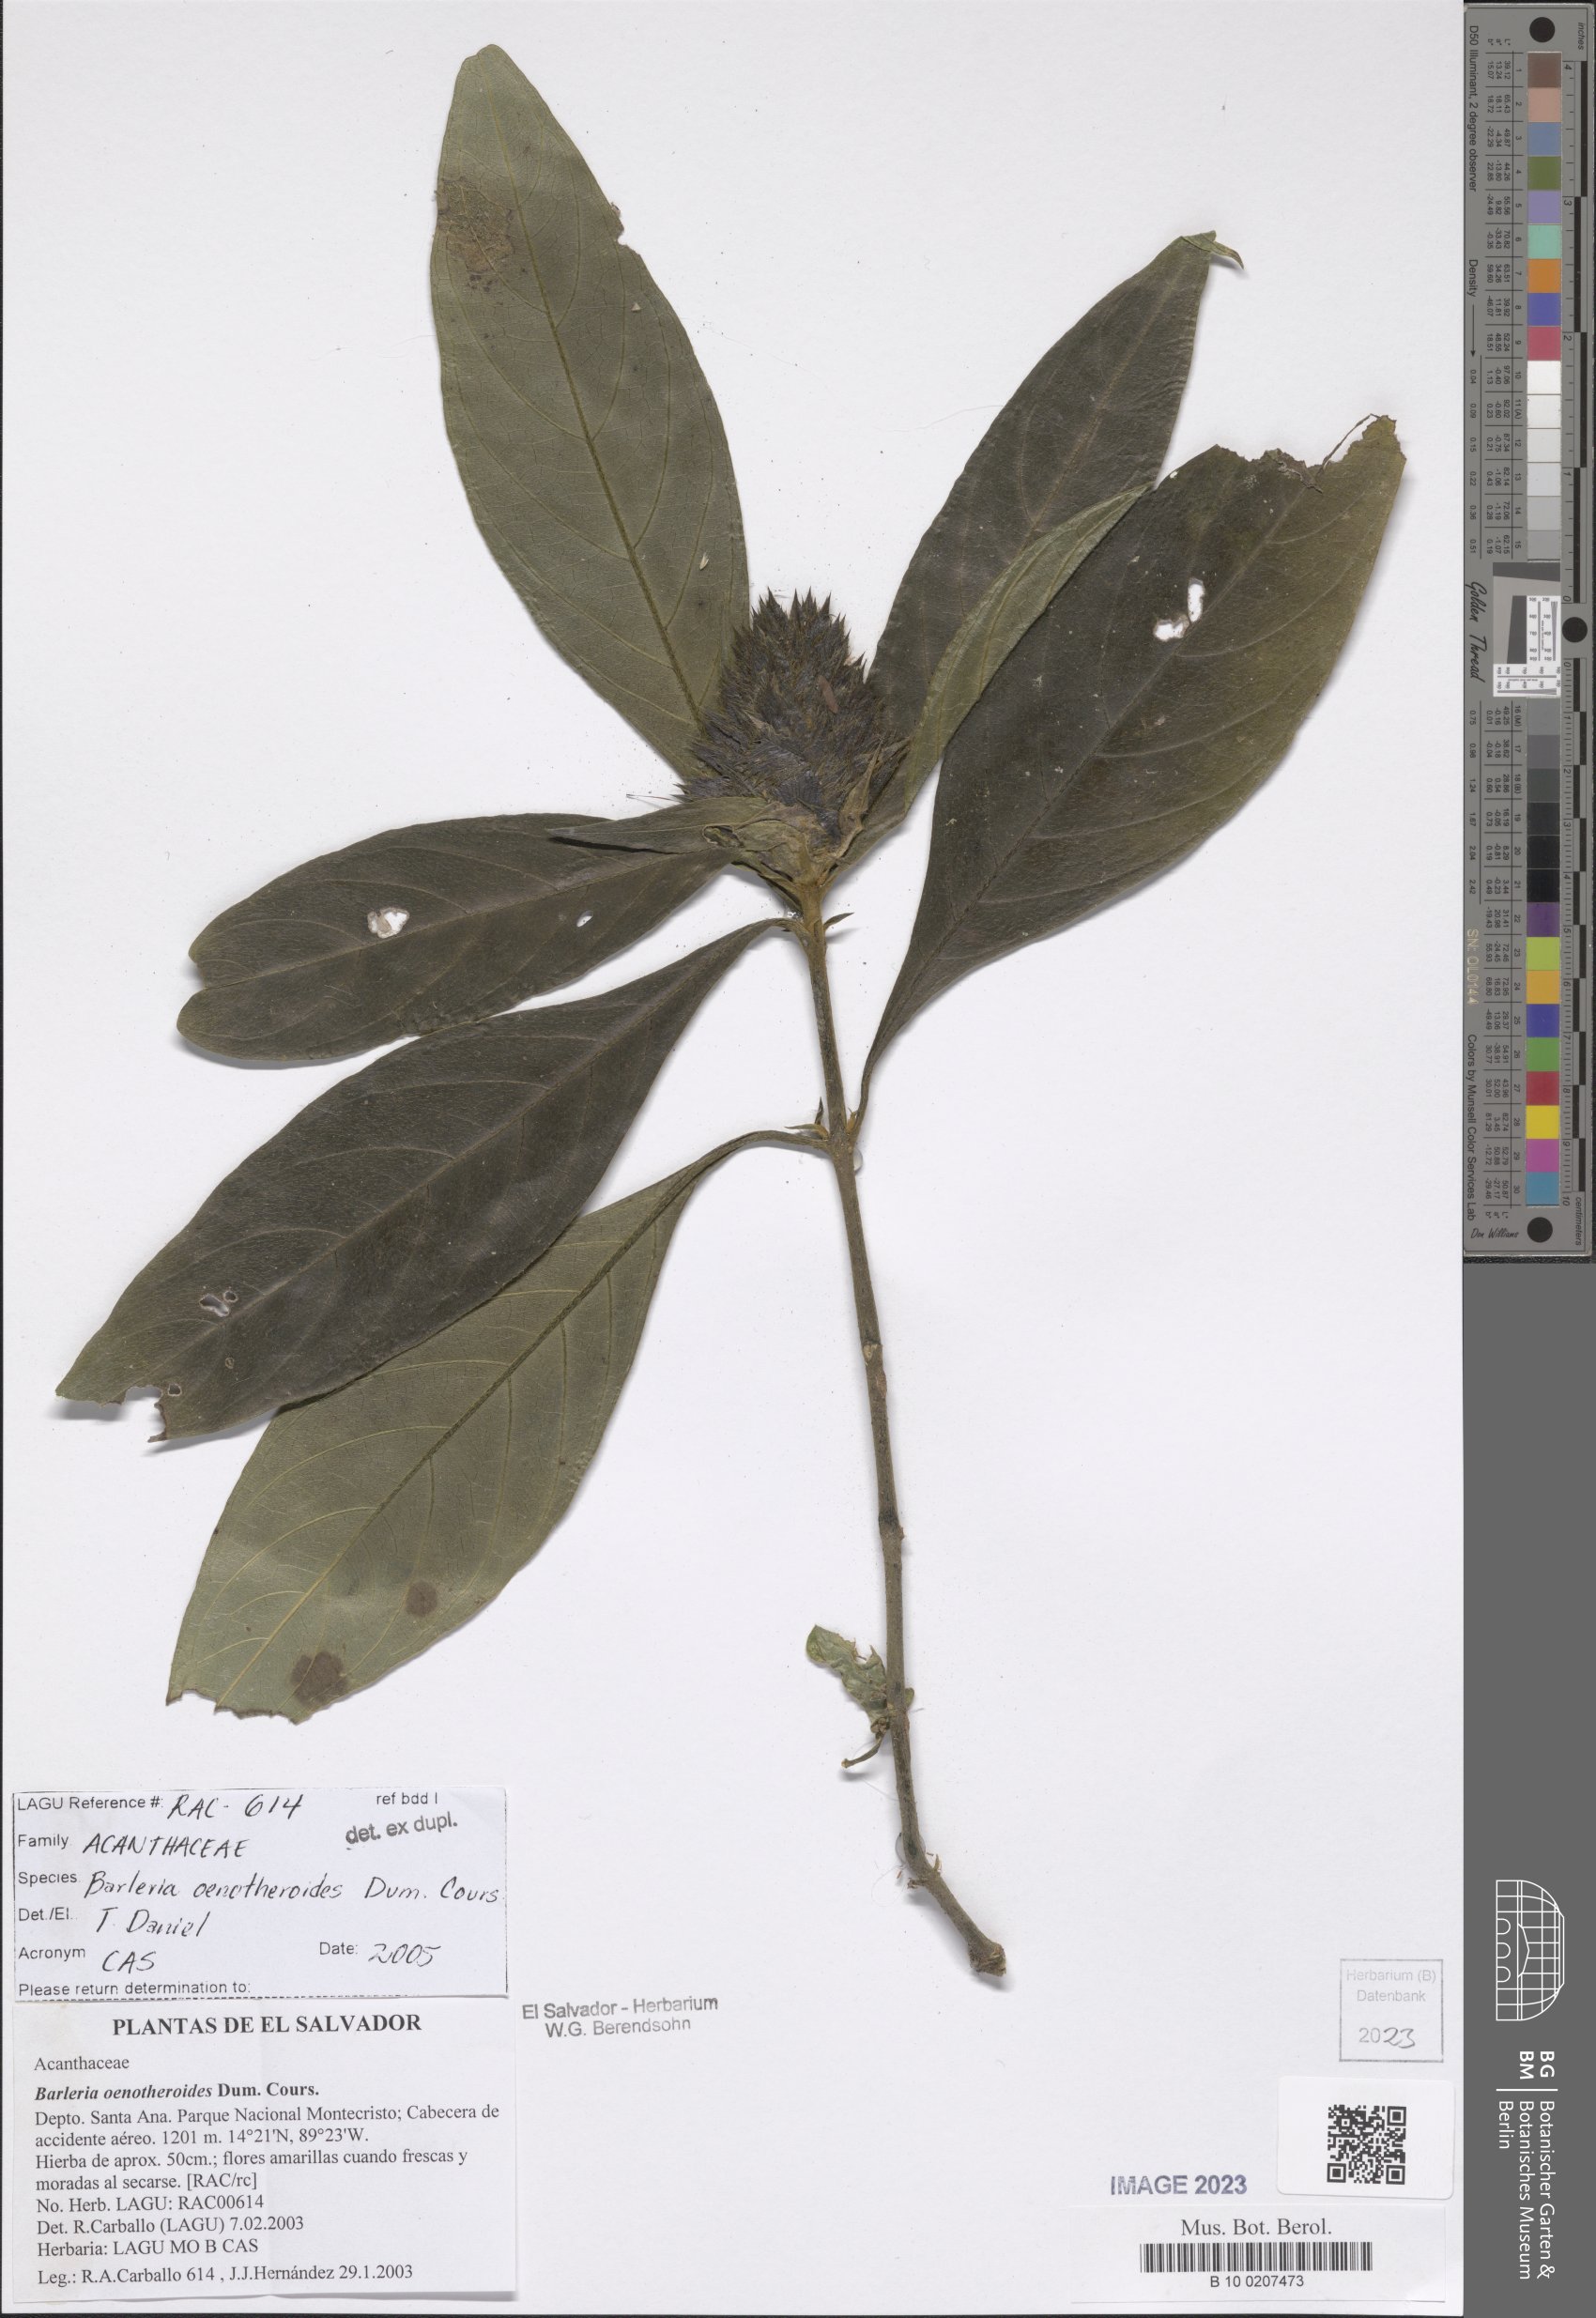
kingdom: Plantae
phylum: Tracheophyta
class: Magnoliopsida
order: Lamiales
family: Acanthaceae
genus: Barleria
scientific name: Barleria oenotheroides
